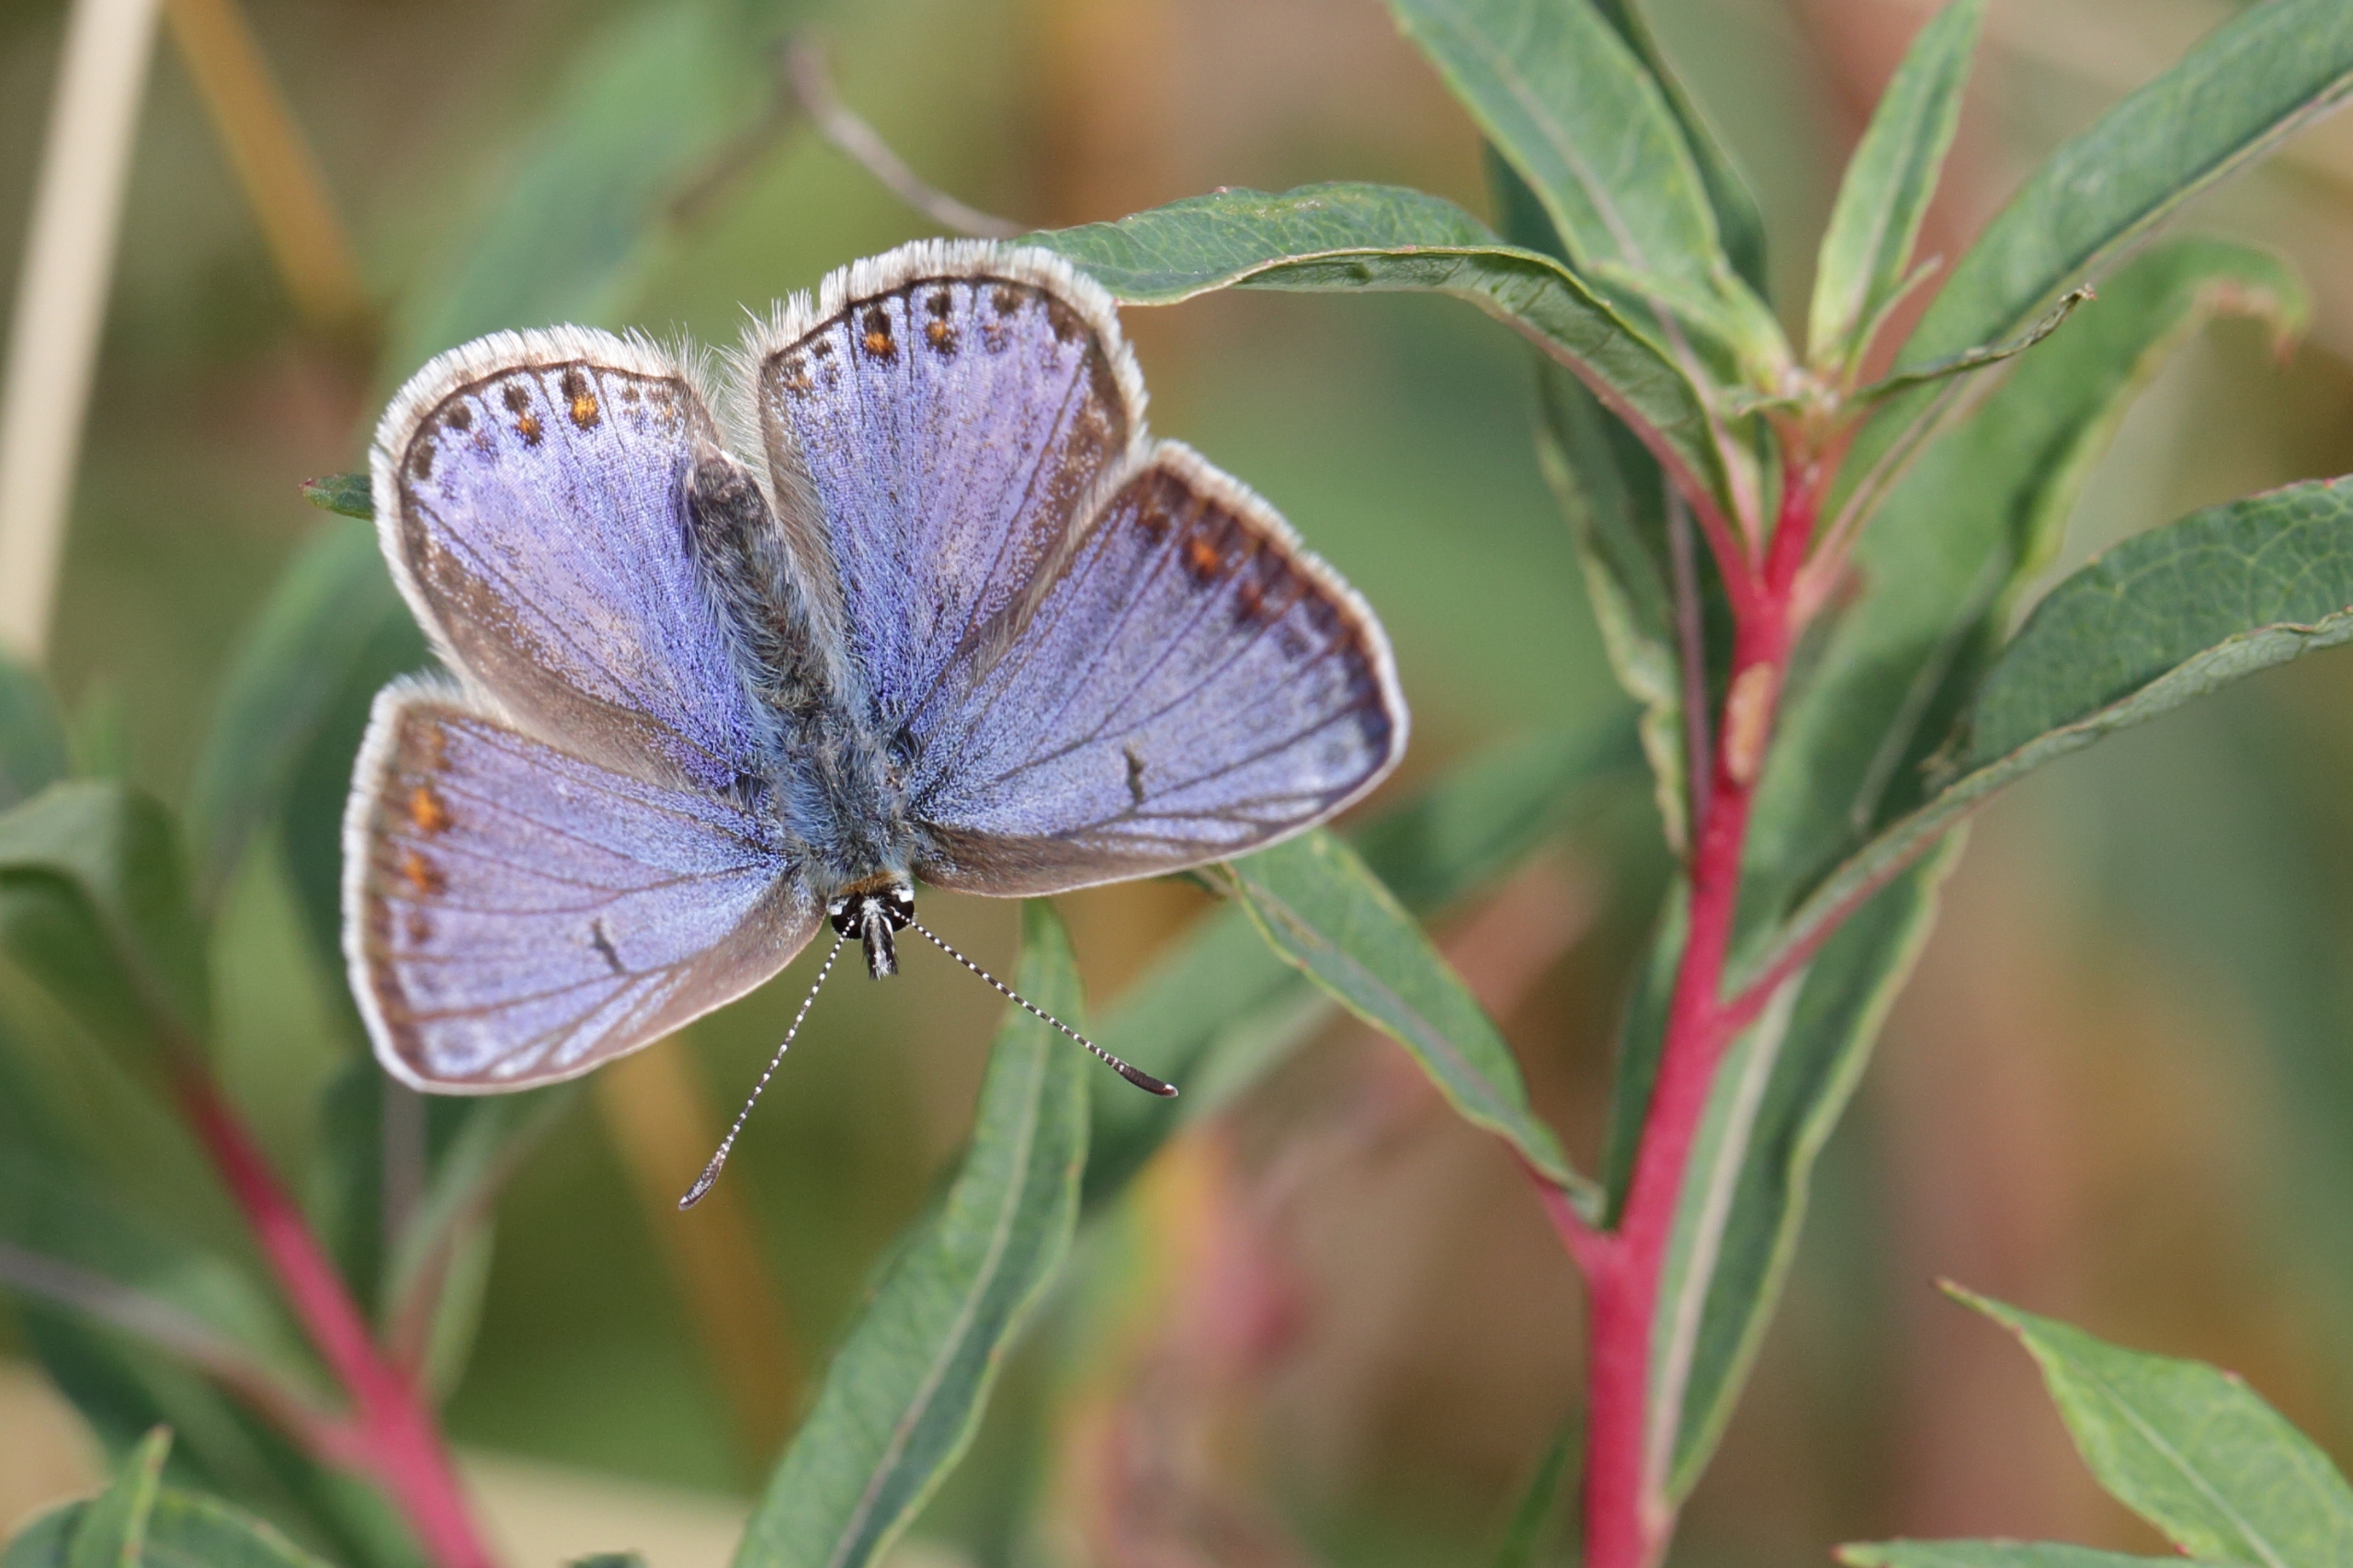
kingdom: Animalia
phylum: Arthropoda
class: Insecta
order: Lepidoptera
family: Lycaenidae
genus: Polyommatus
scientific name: Polyommatus icarus
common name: Almindelig blåfugl
